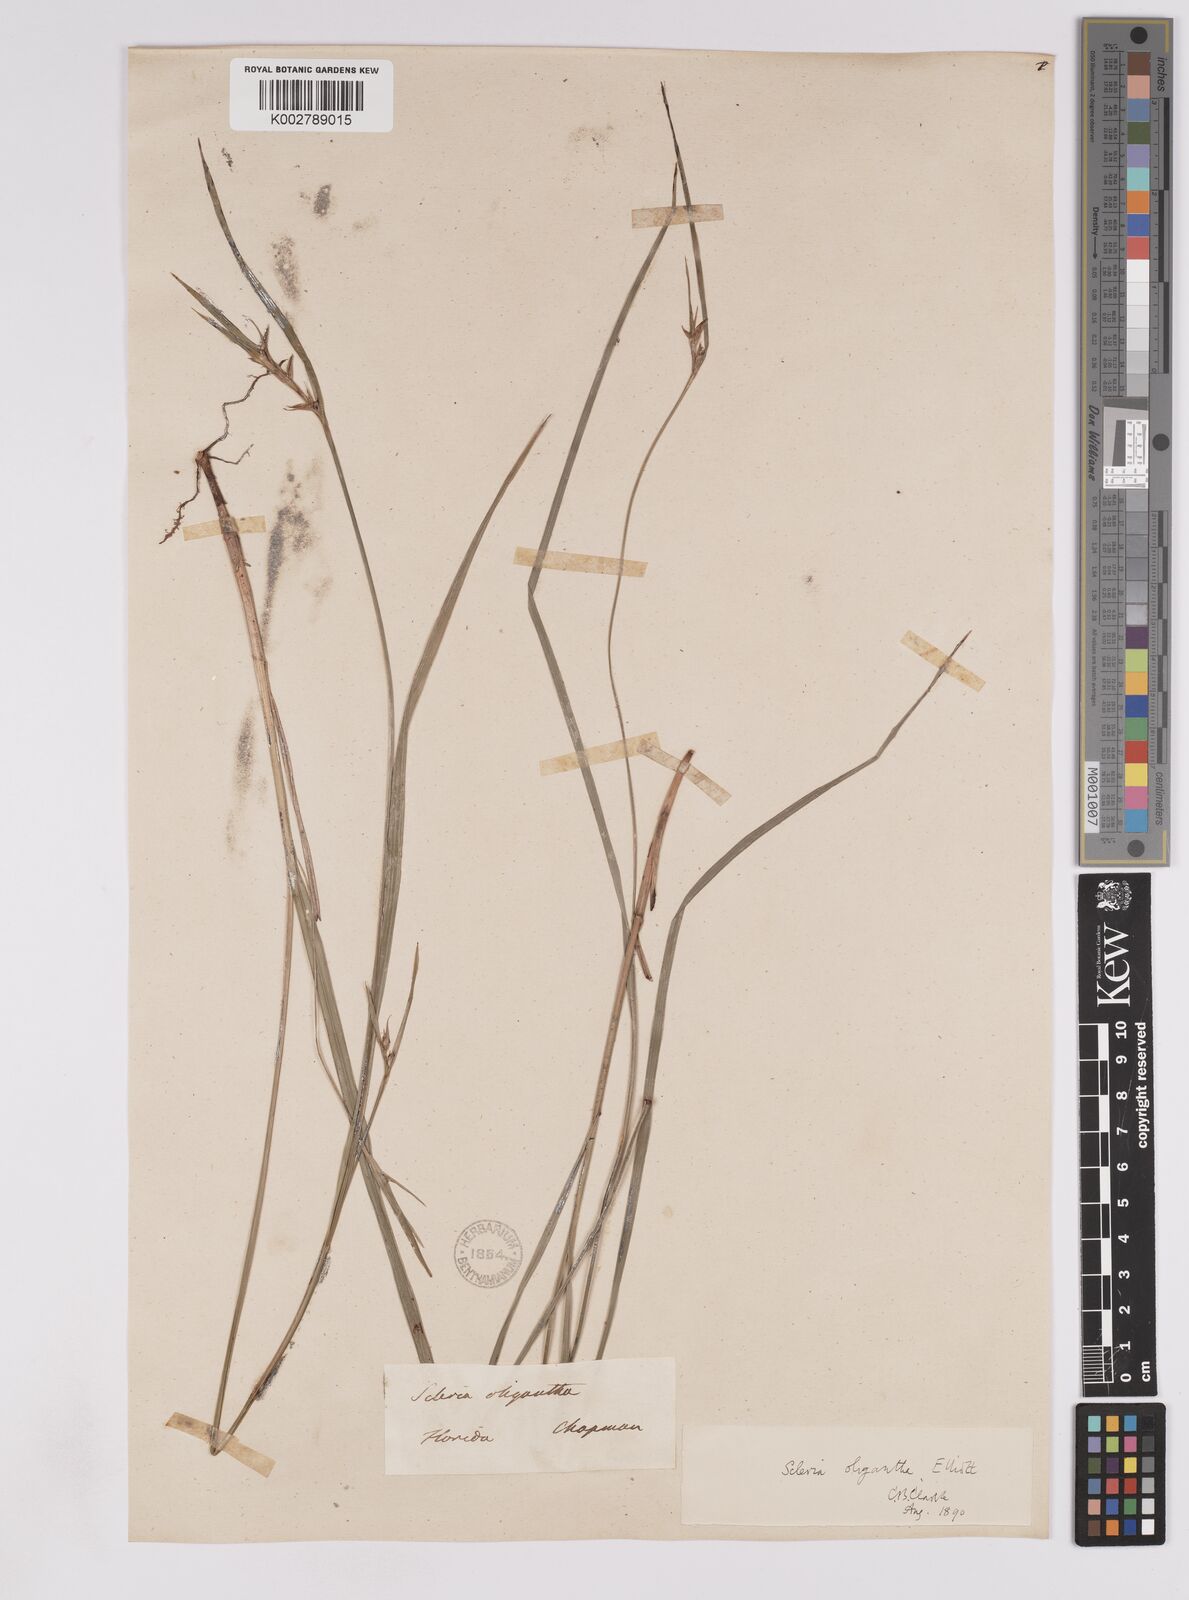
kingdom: Plantae
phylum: Tracheophyta
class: Liliopsida
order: Poales
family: Cyperaceae
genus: Scleria
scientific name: Scleria oligantha
